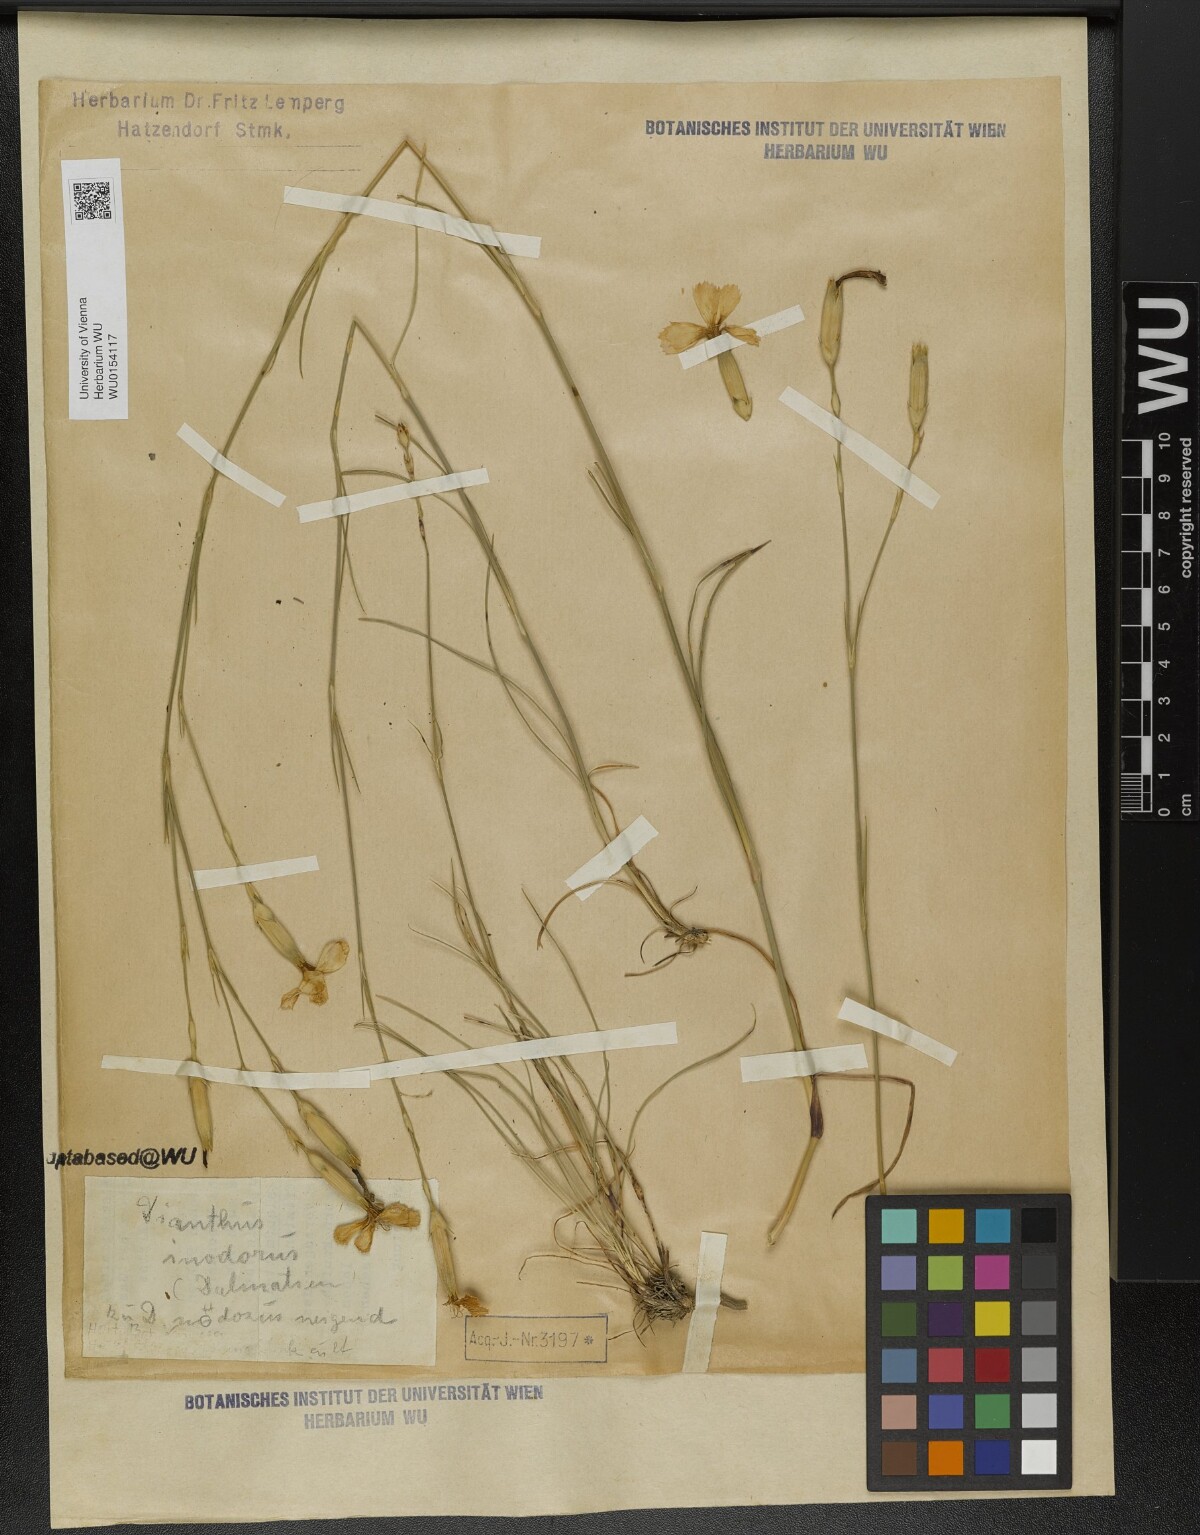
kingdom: Plantae
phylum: Tracheophyta
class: Magnoliopsida
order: Caryophyllales
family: Caryophyllaceae
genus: Dianthus
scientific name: Dianthus sylvestris
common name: Wood pink
